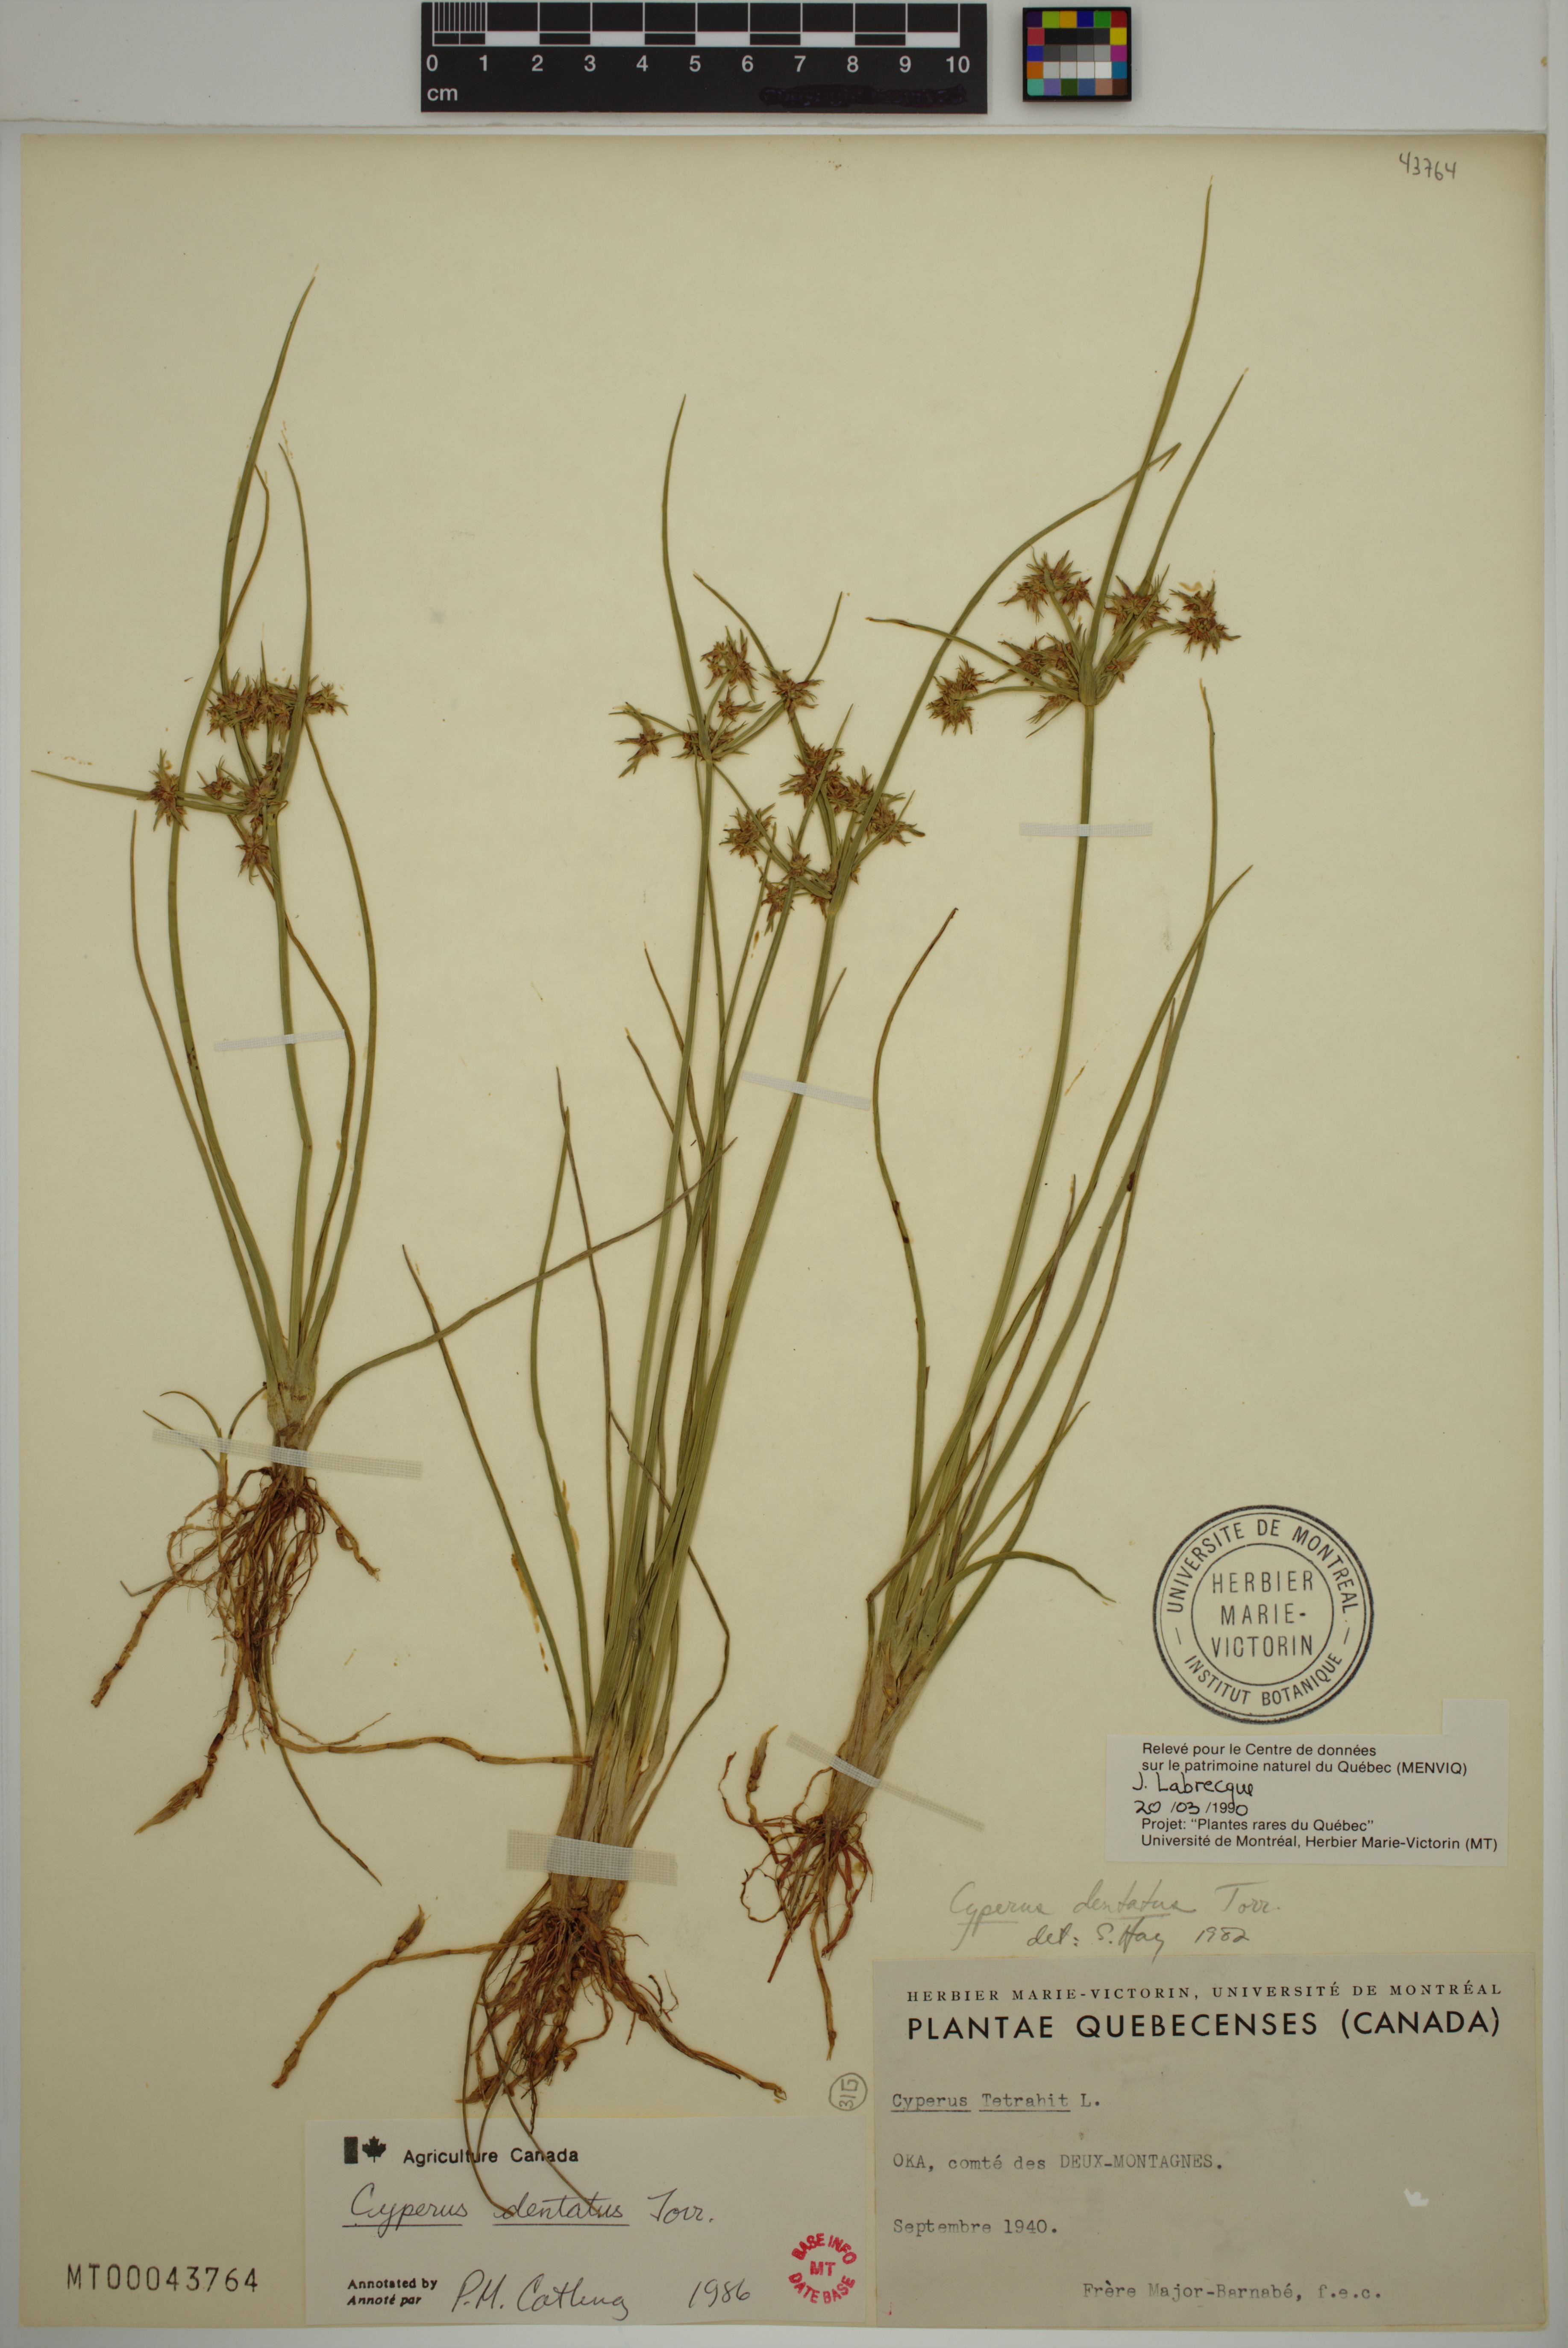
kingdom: Plantae
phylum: Tracheophyta
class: Liliopsida
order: Poales
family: Cyperaceae
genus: Cyperus
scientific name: Cyperus dentatus
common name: Dentate umbrella sedge
